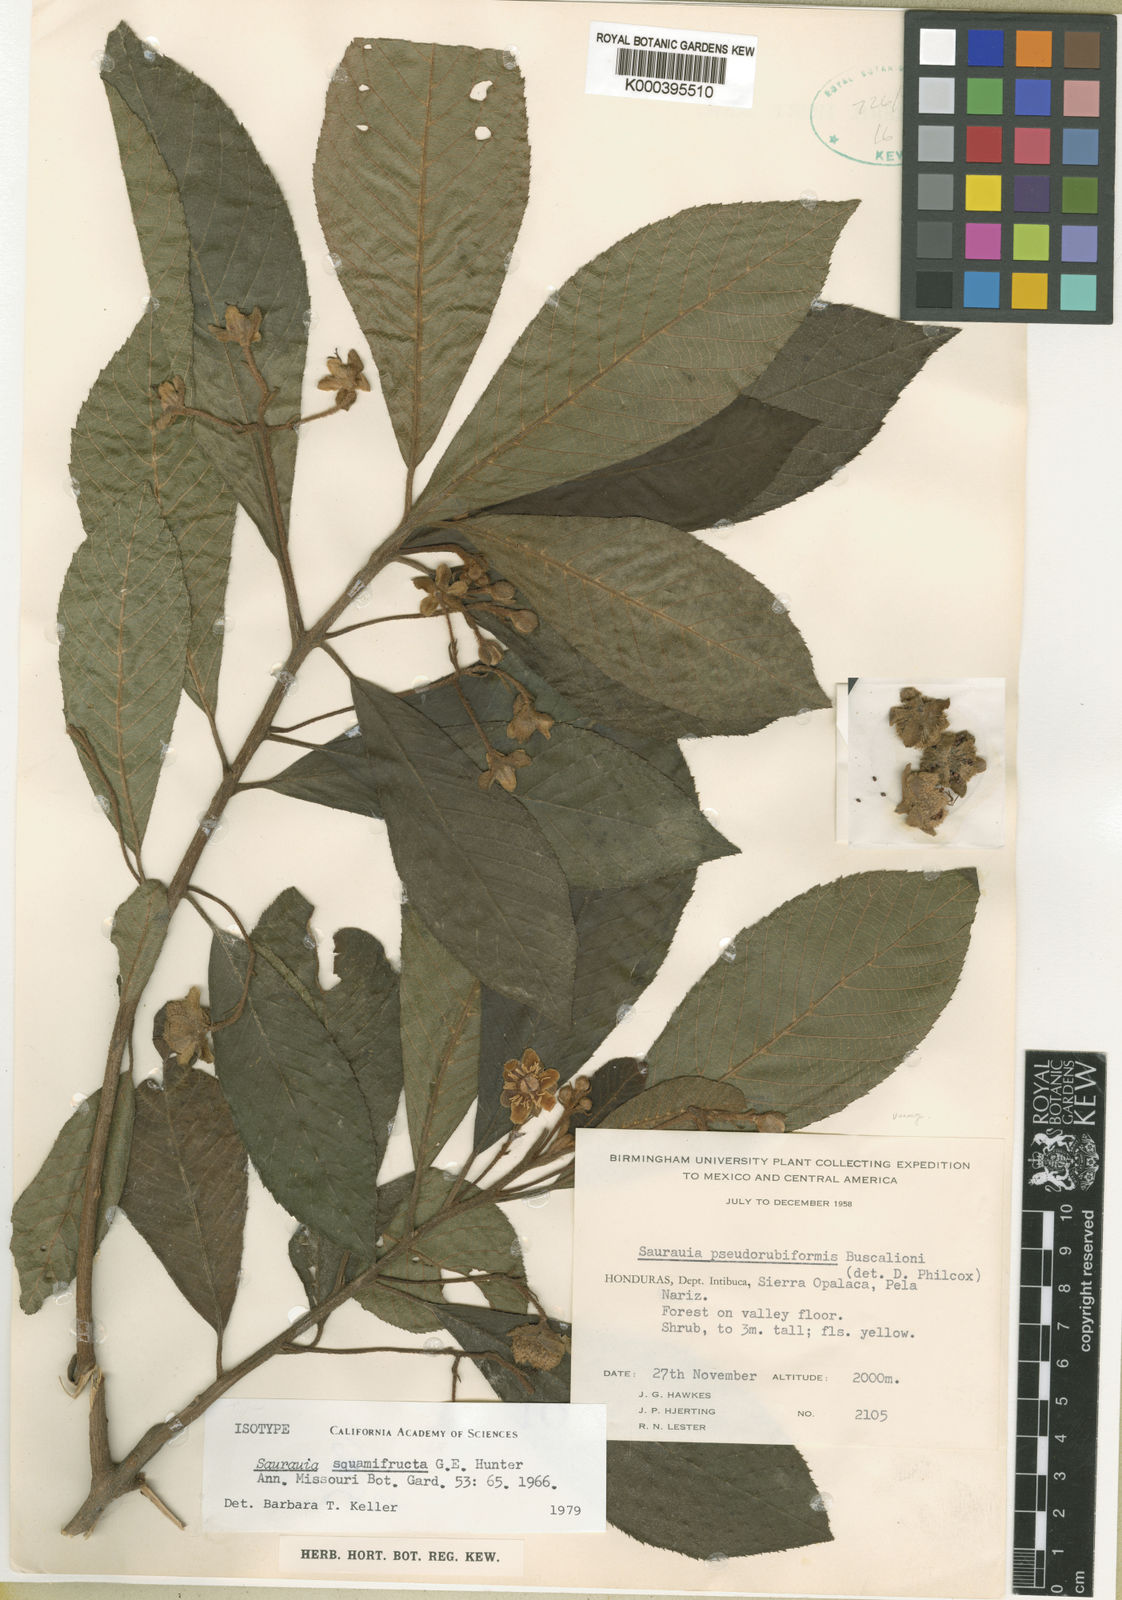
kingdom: Plantae
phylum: Tracheophyta
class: Magnoliopsida
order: Ericales
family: Actinidiaceae
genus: Saurauia
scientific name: Saurauia squamifructa
